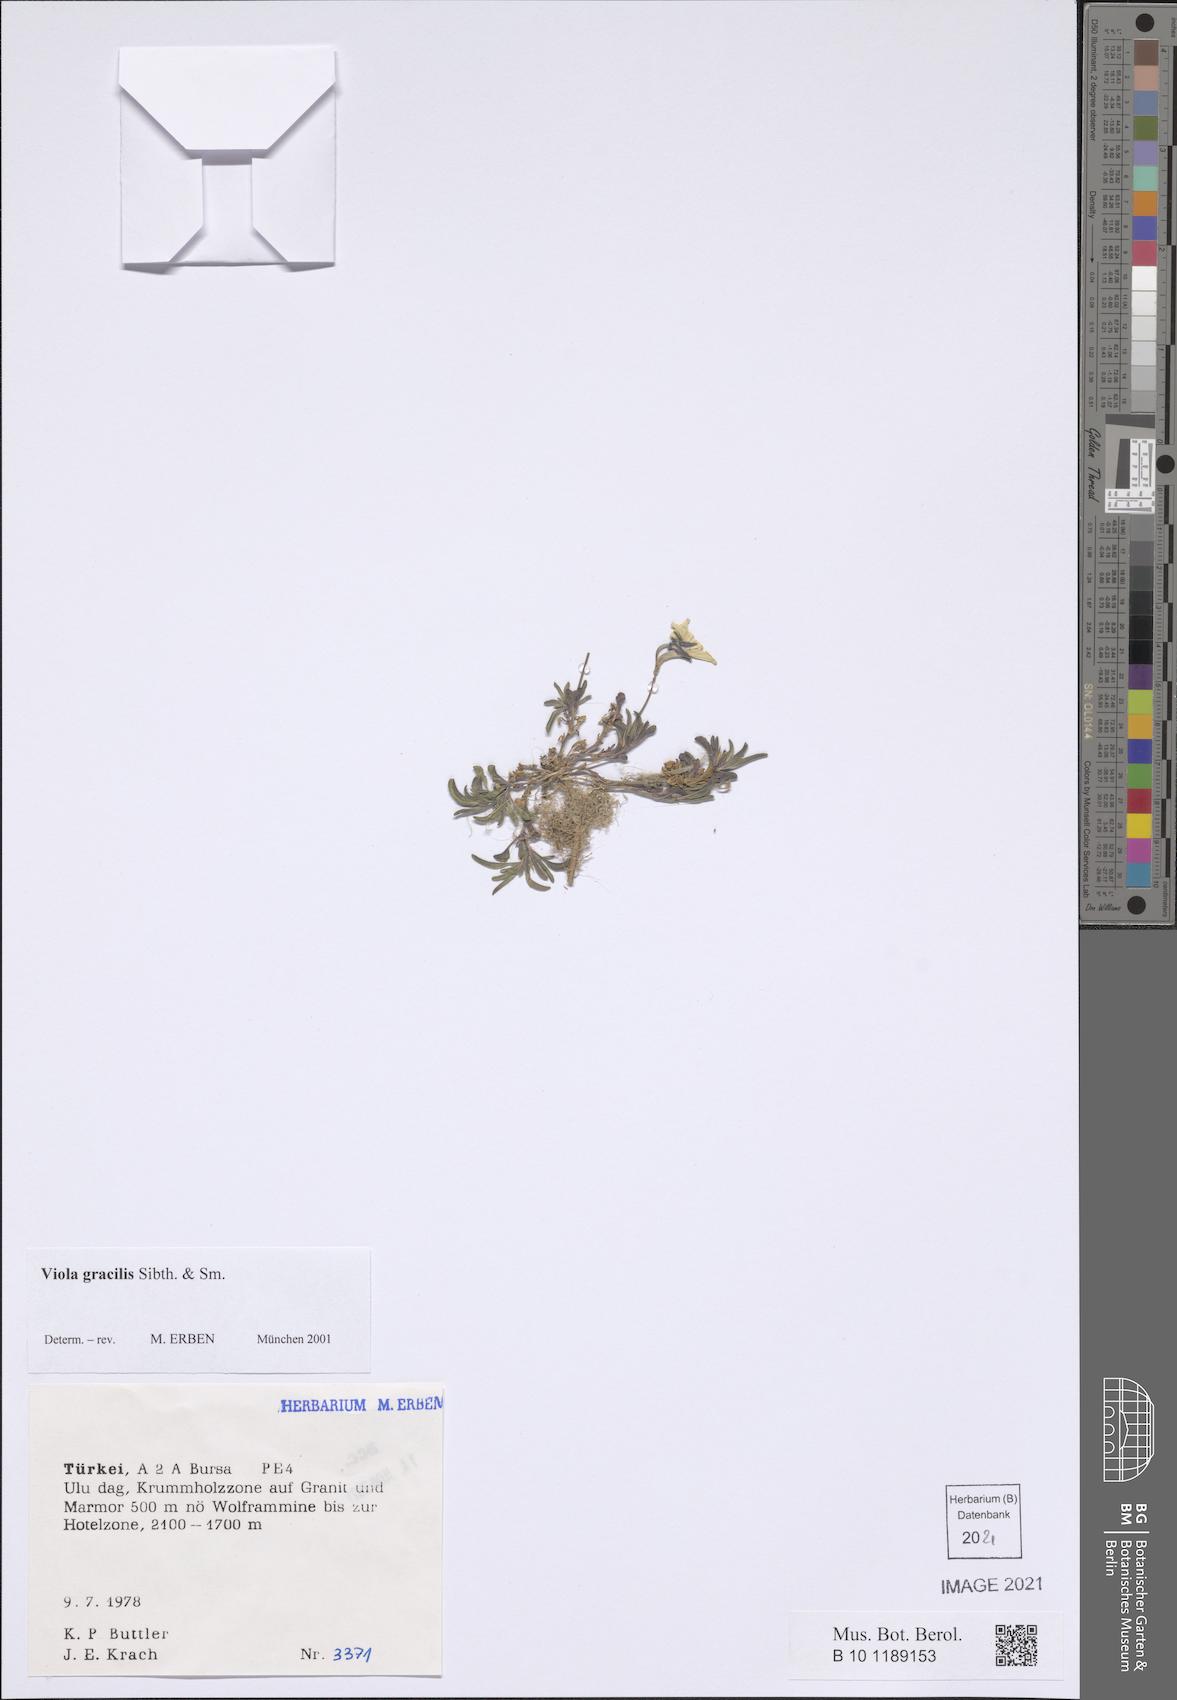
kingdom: Plantae
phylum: Tracheophyta
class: Magnoliopsida
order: Malpighiales
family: Violaceae
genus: Viola
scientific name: Viola gracilis
